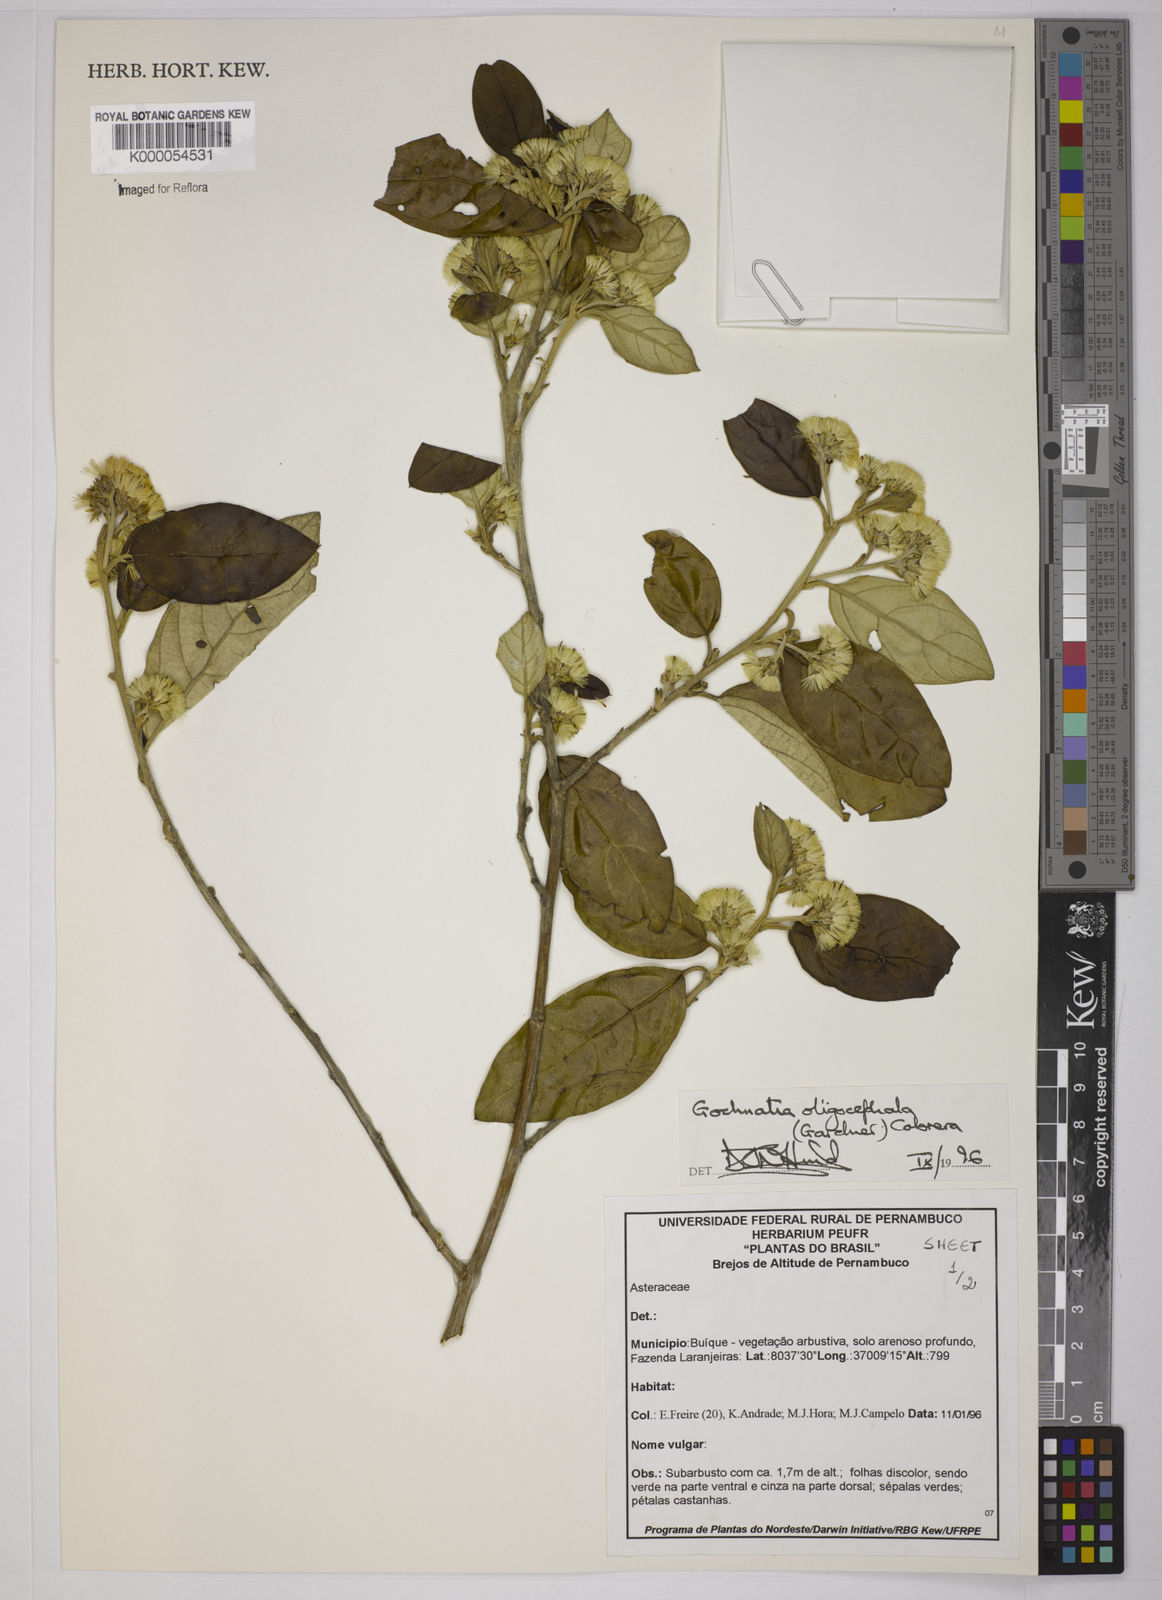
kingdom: Plantae
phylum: Tracheophyta
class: Magnoliopsida
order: Asterales
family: Asteraceae
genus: Moquiniastrum
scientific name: Moquiniastrum oligocephalum
